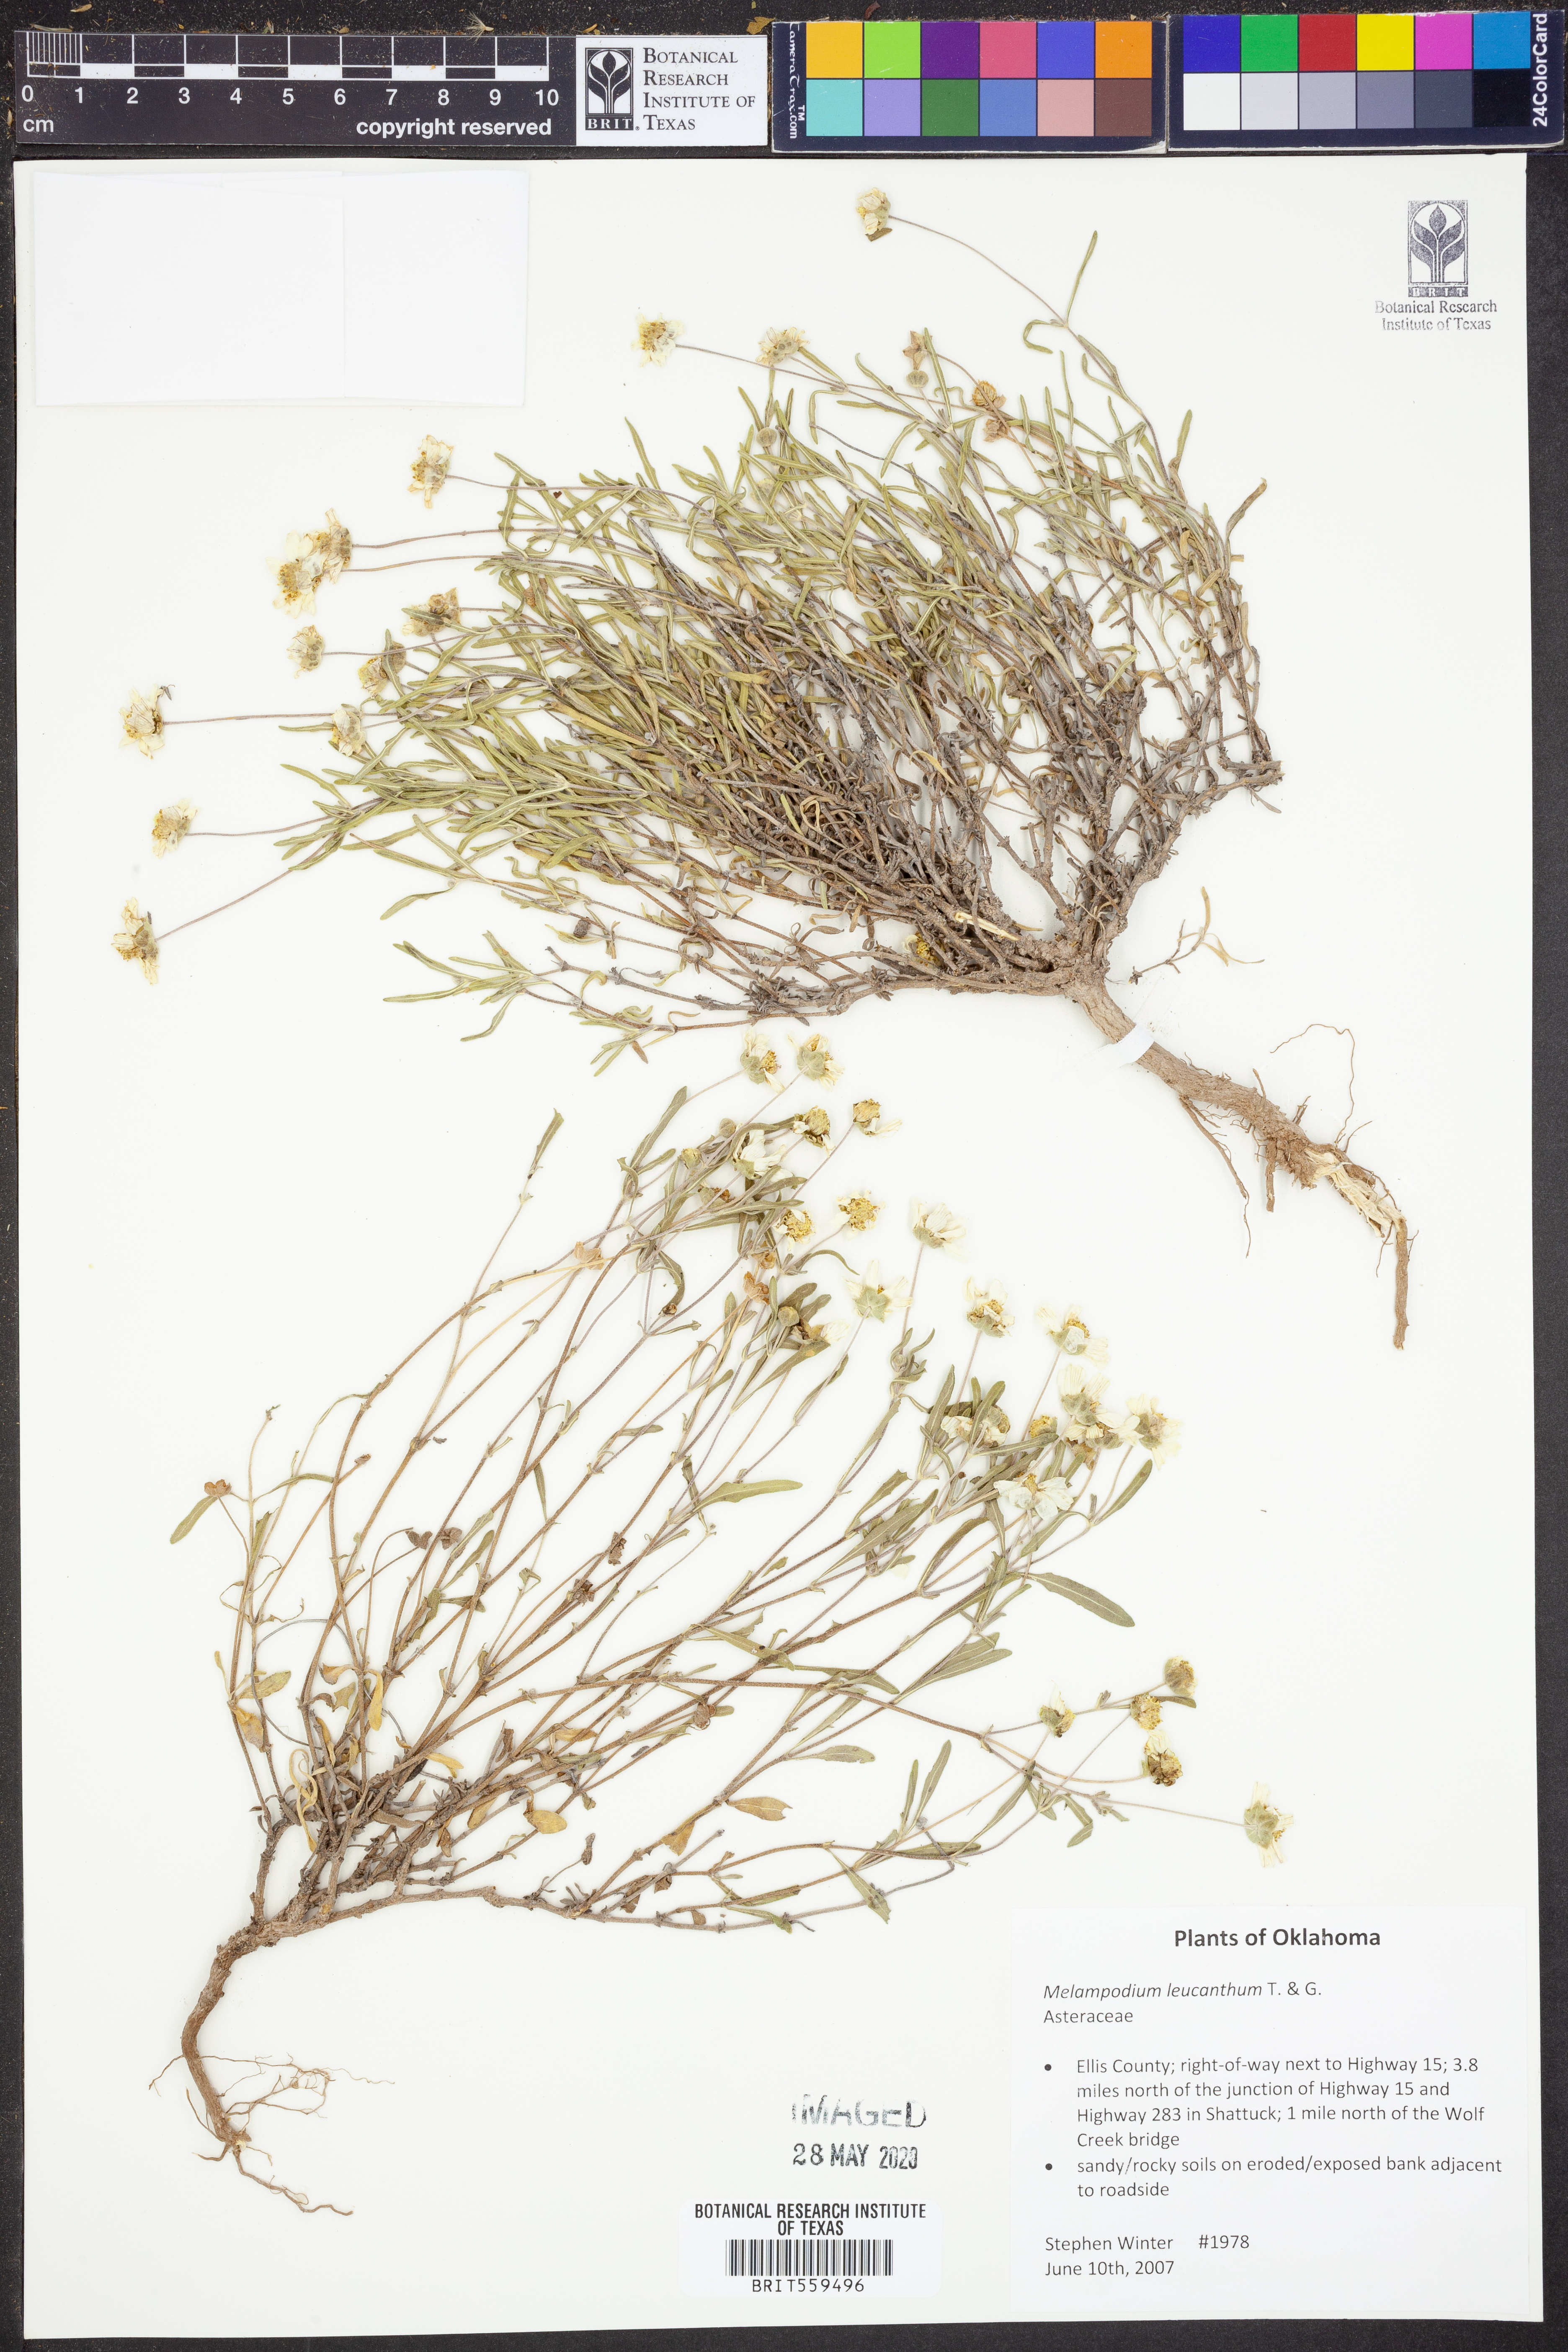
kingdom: Plantae
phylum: Tracheophyta
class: Magnoliopsida
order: Asterales
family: Asteraceae
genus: Melampodium
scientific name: Melampodium leucanthum
